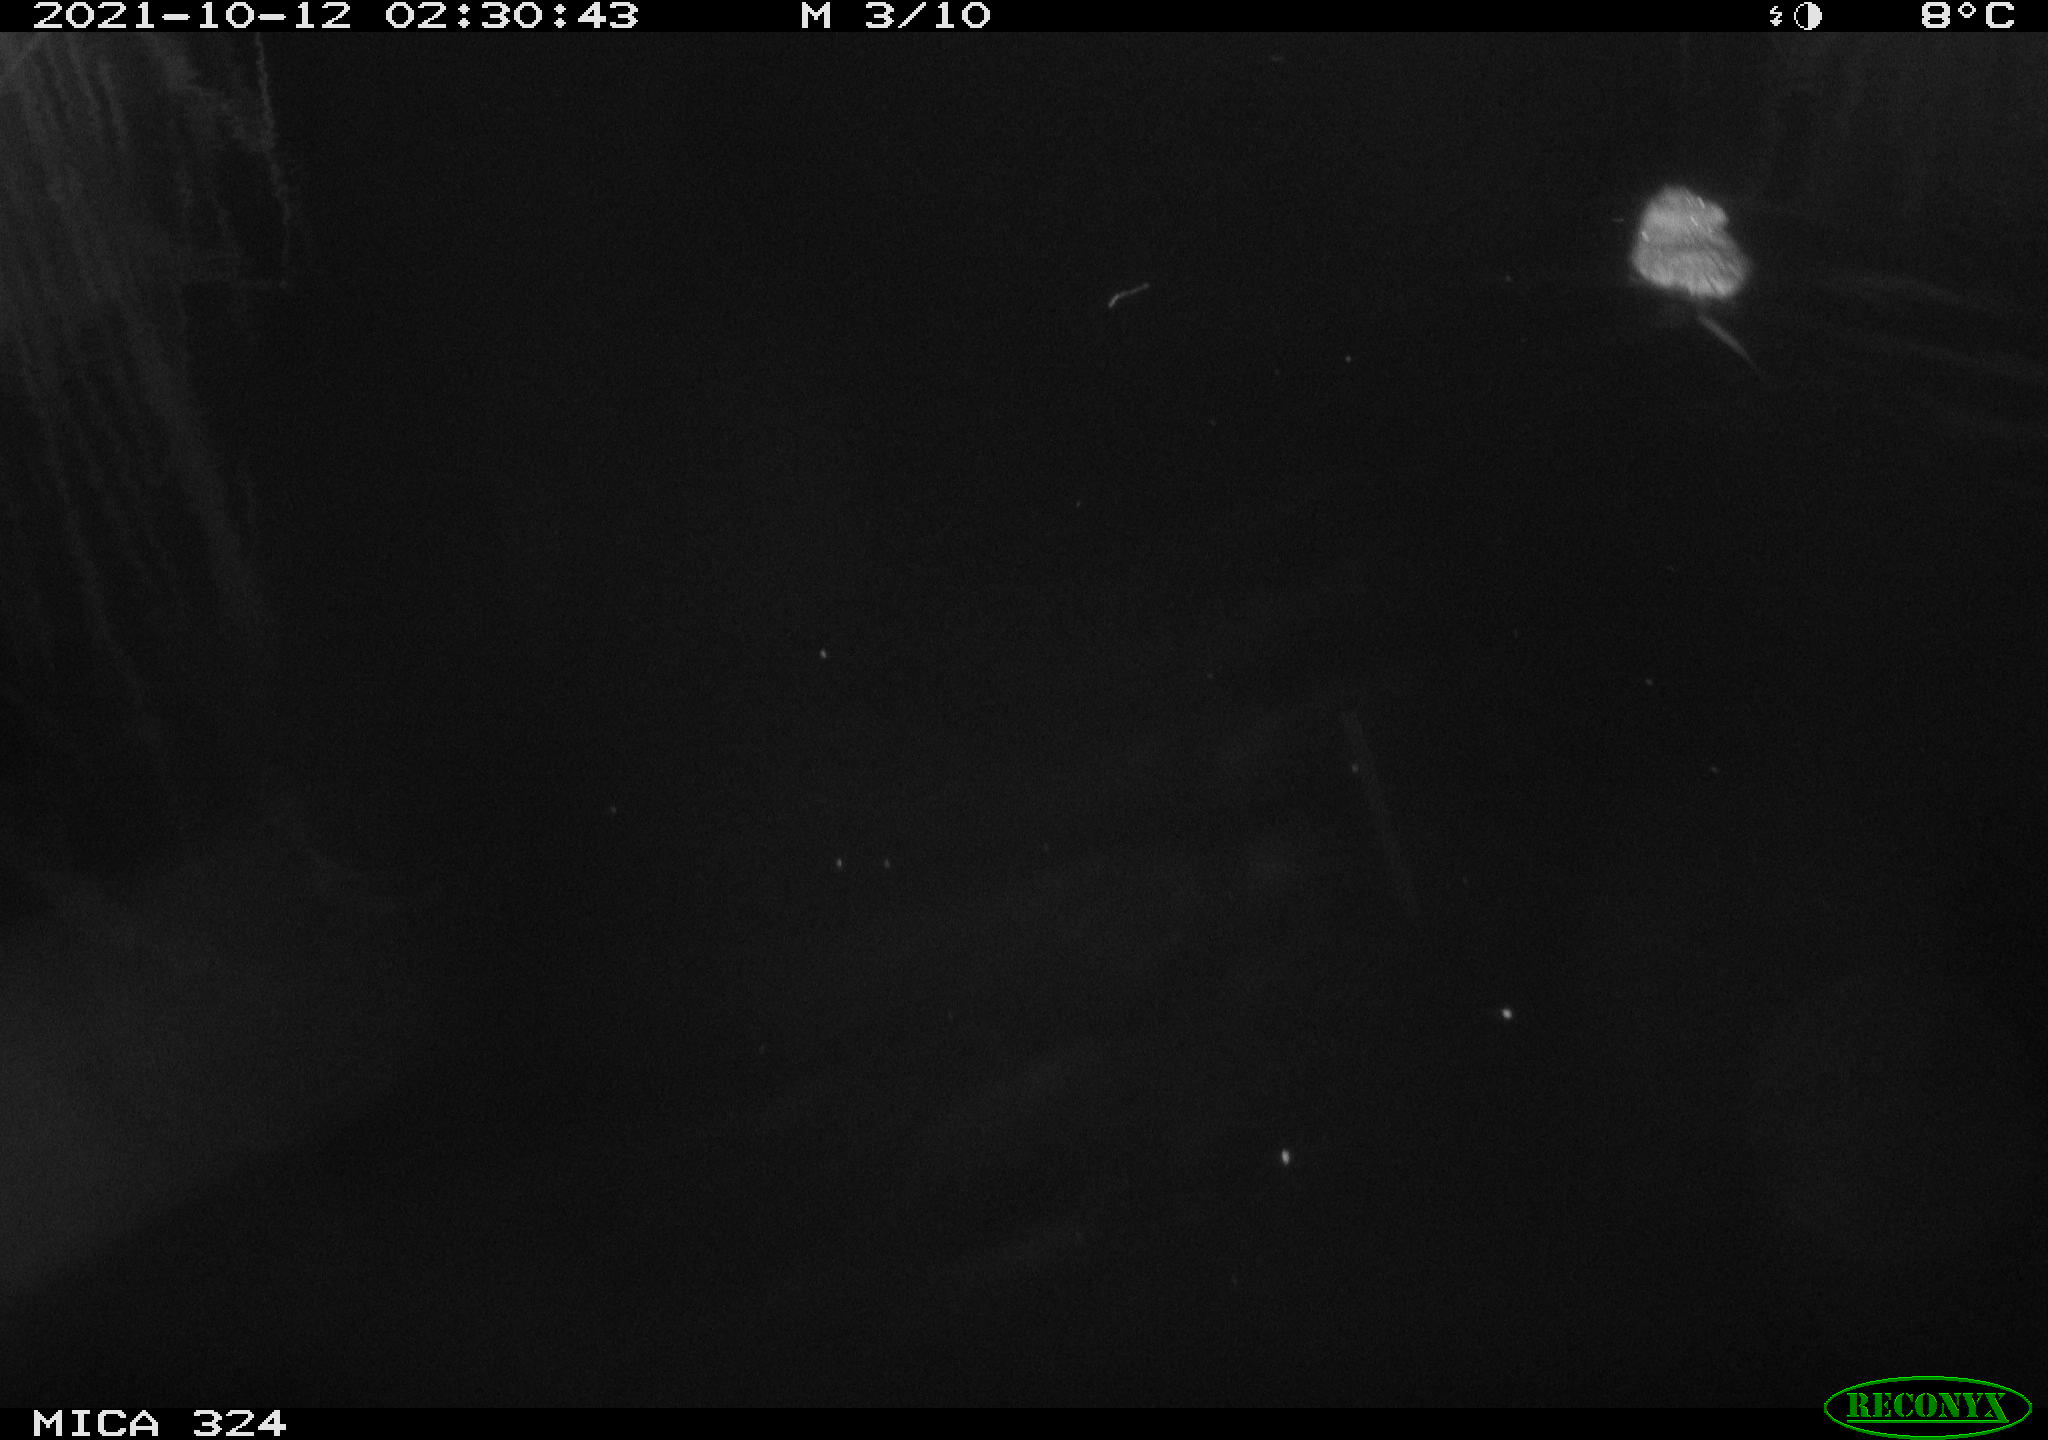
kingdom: Animalia
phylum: Chordata
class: Mammalia
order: Rodentia
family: Cricetidae
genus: Ondatra
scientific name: Ondatra zibethicus
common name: Muskrat
